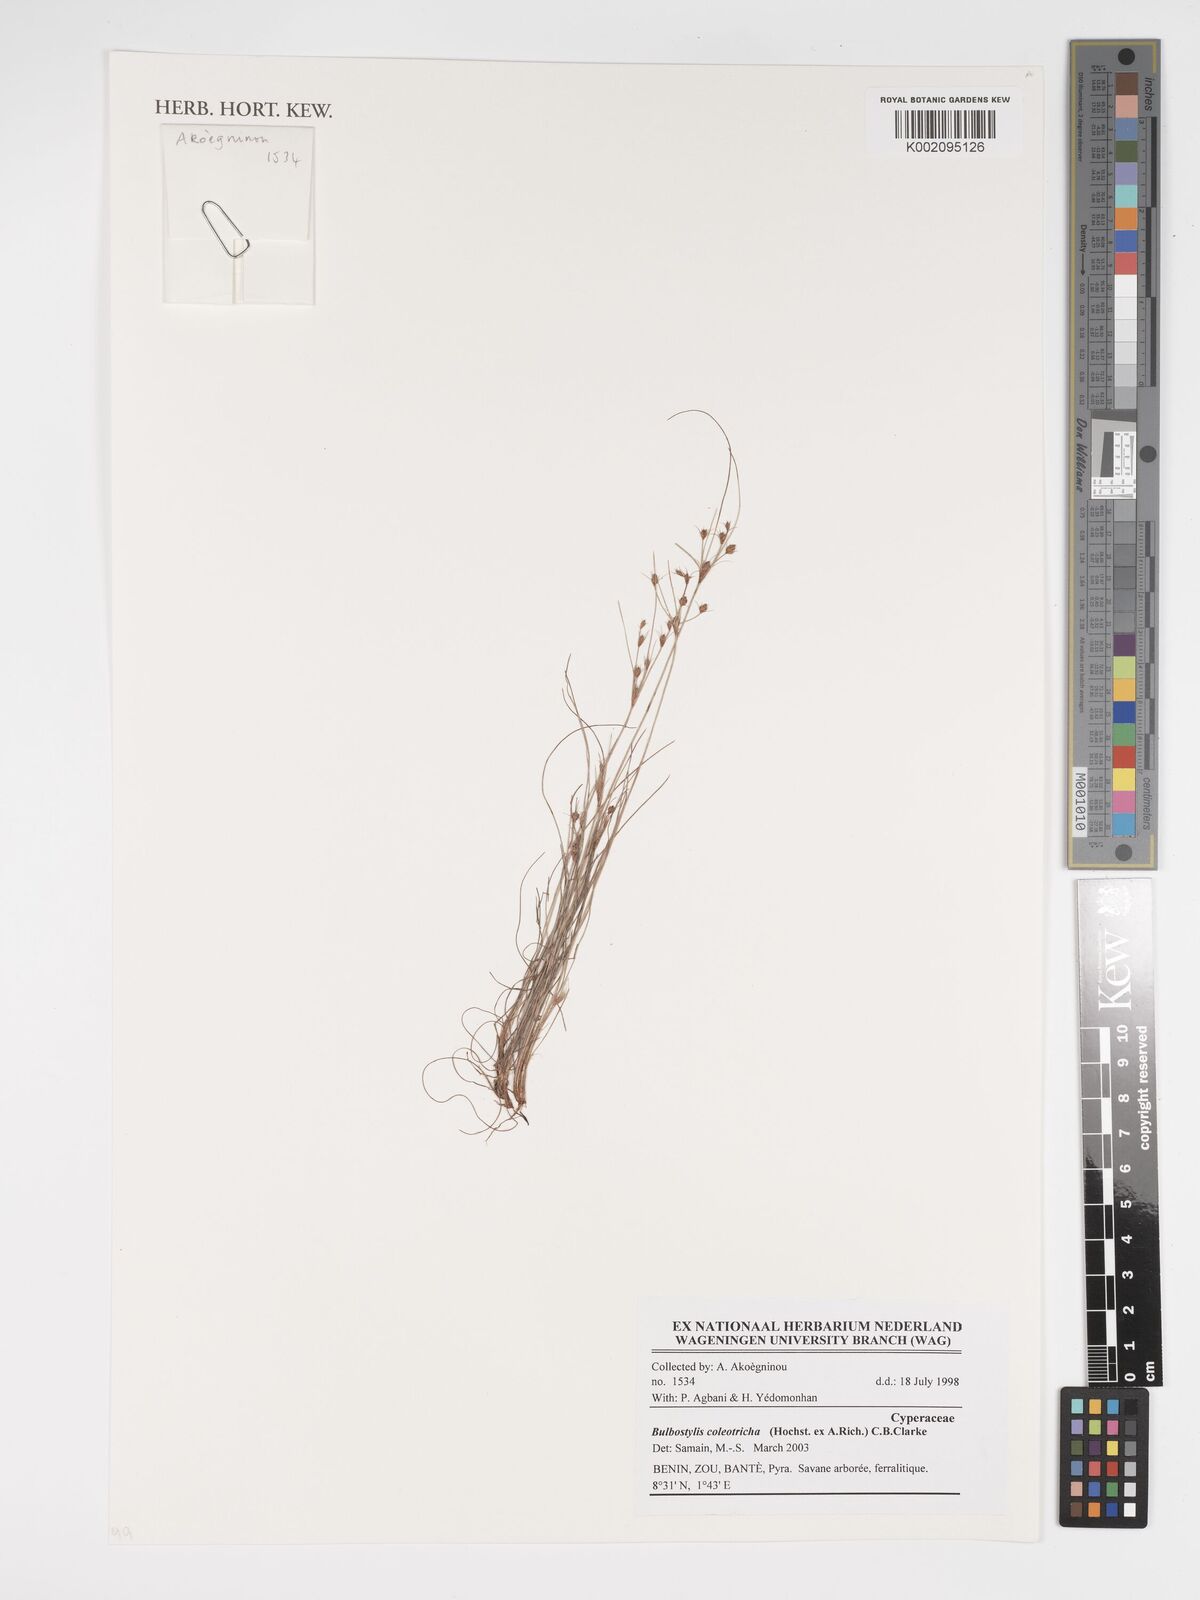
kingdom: Plantae
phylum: Tracheophyta
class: Liliopsida
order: Poales
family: Cyperaceae
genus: Bulbostylis
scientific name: Bulbostylis coleotricha
